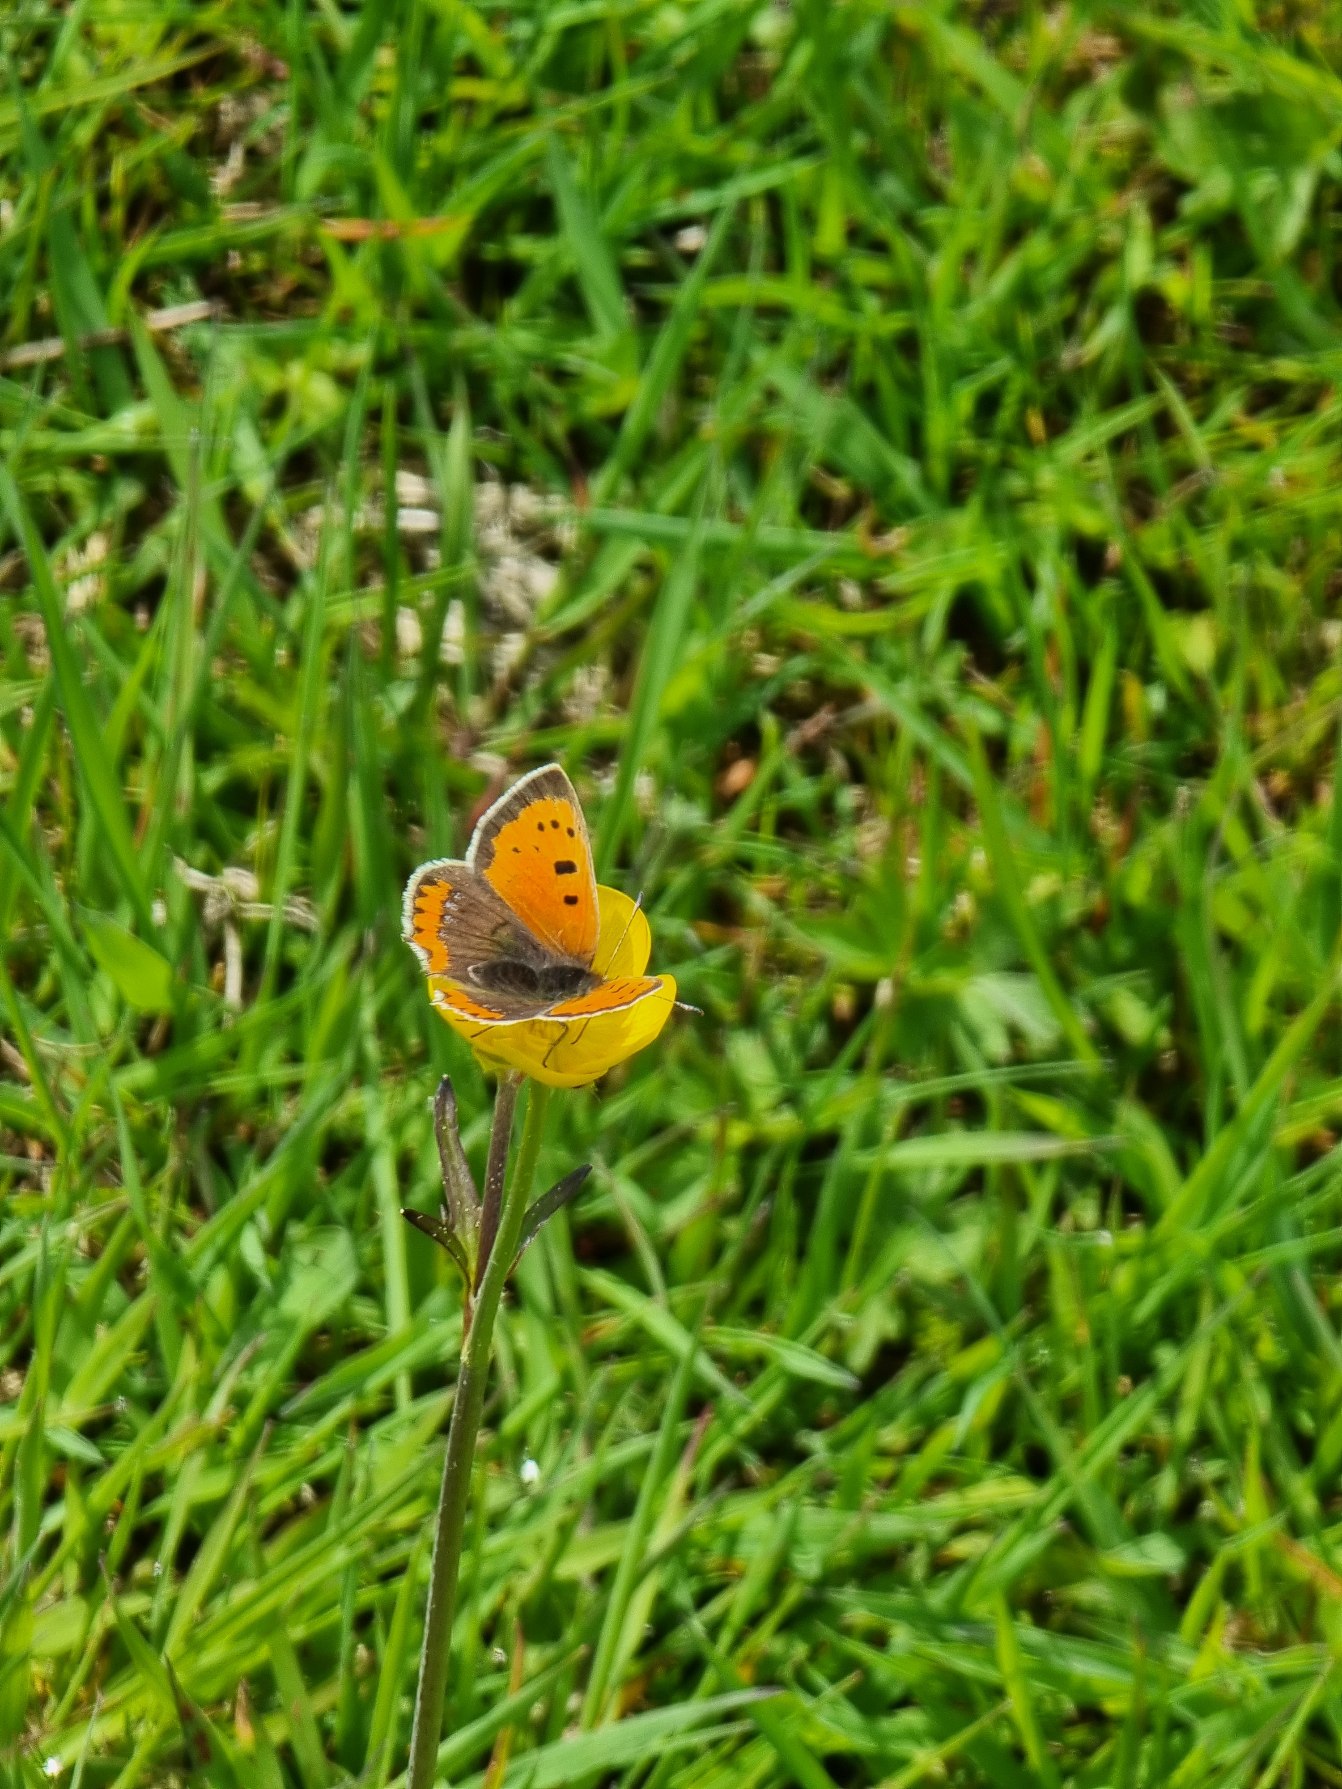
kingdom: Animalia
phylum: Arthropoda
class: Insecta
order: Lepidoptera
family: Lycaenidae
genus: Lycaena
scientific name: Lycaena phlaeas
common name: Lille ildfugl
